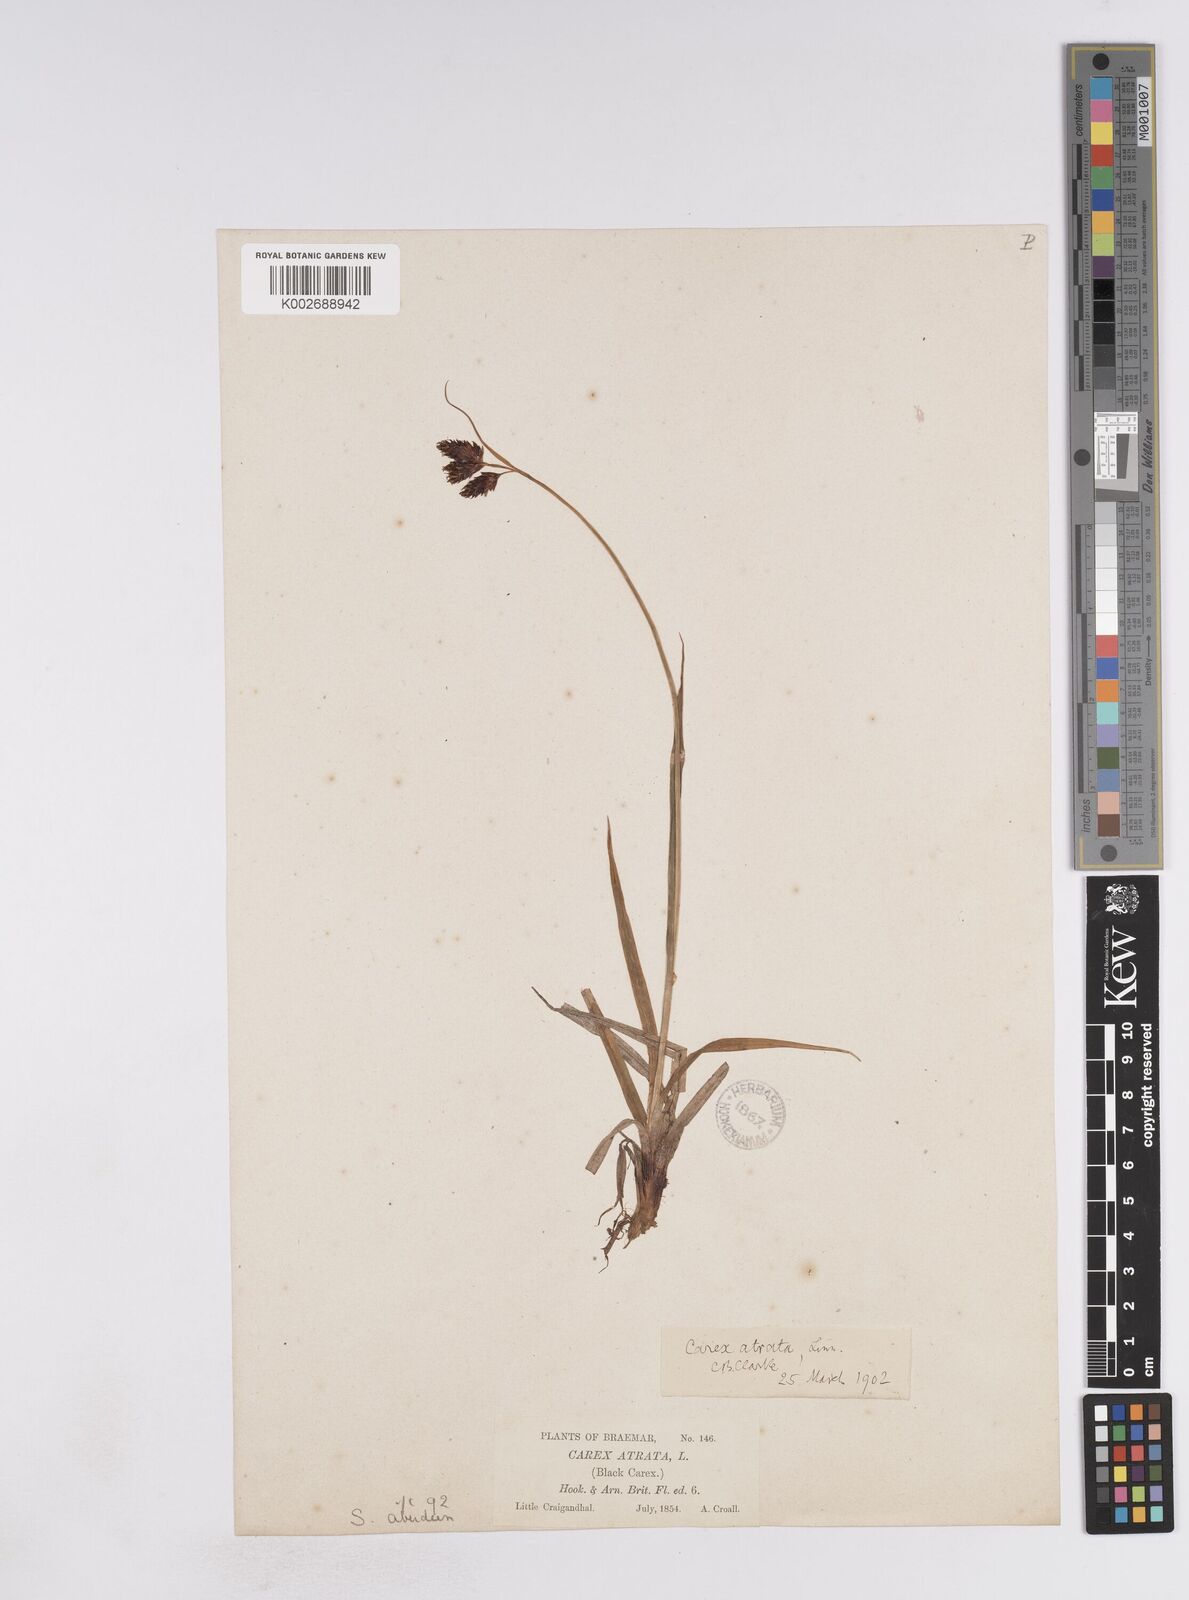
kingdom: Plantae
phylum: Tracheophyta
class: Liliopsida
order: Poales
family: Cyperaceae
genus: Carex
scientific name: Carex atrata
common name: Black alpine sedge
